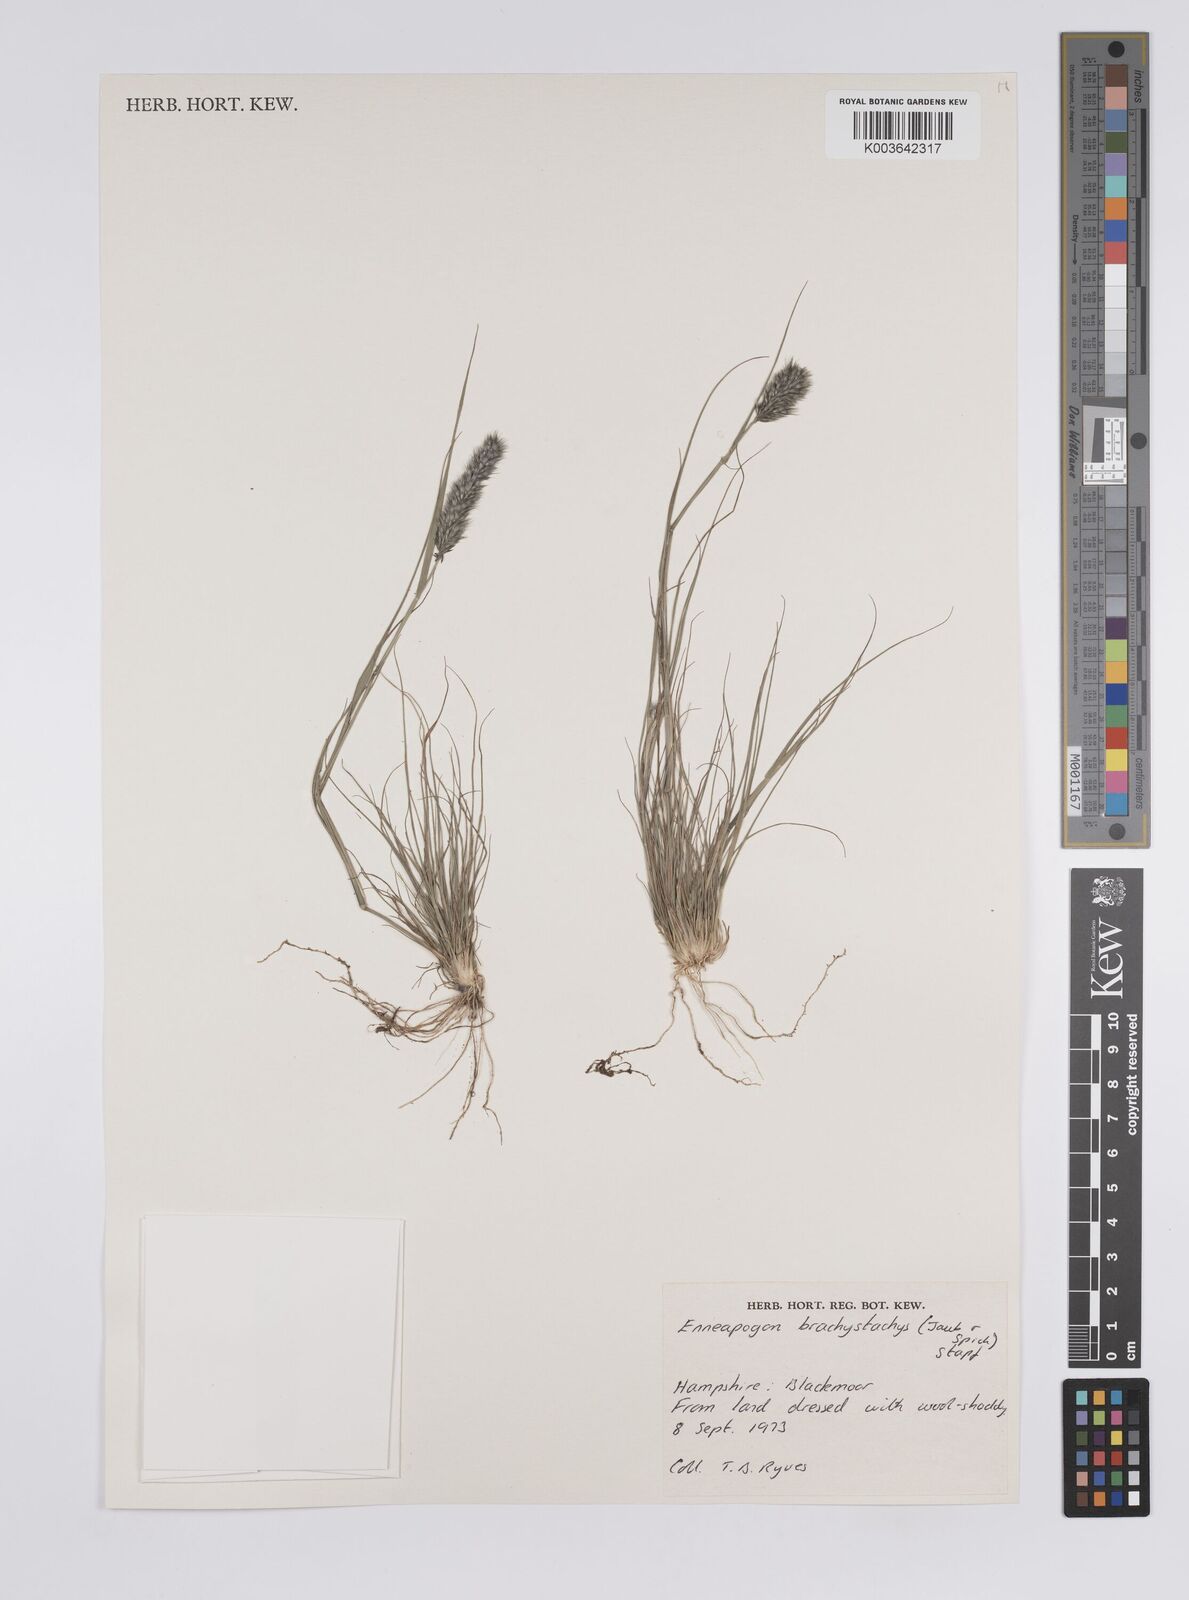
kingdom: Plantae
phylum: Tracheophyta
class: Liliopsida
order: Poales
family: Poaceae
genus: Enneapogon
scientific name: Enneapogon desvauxii
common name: Feather pappus grass
